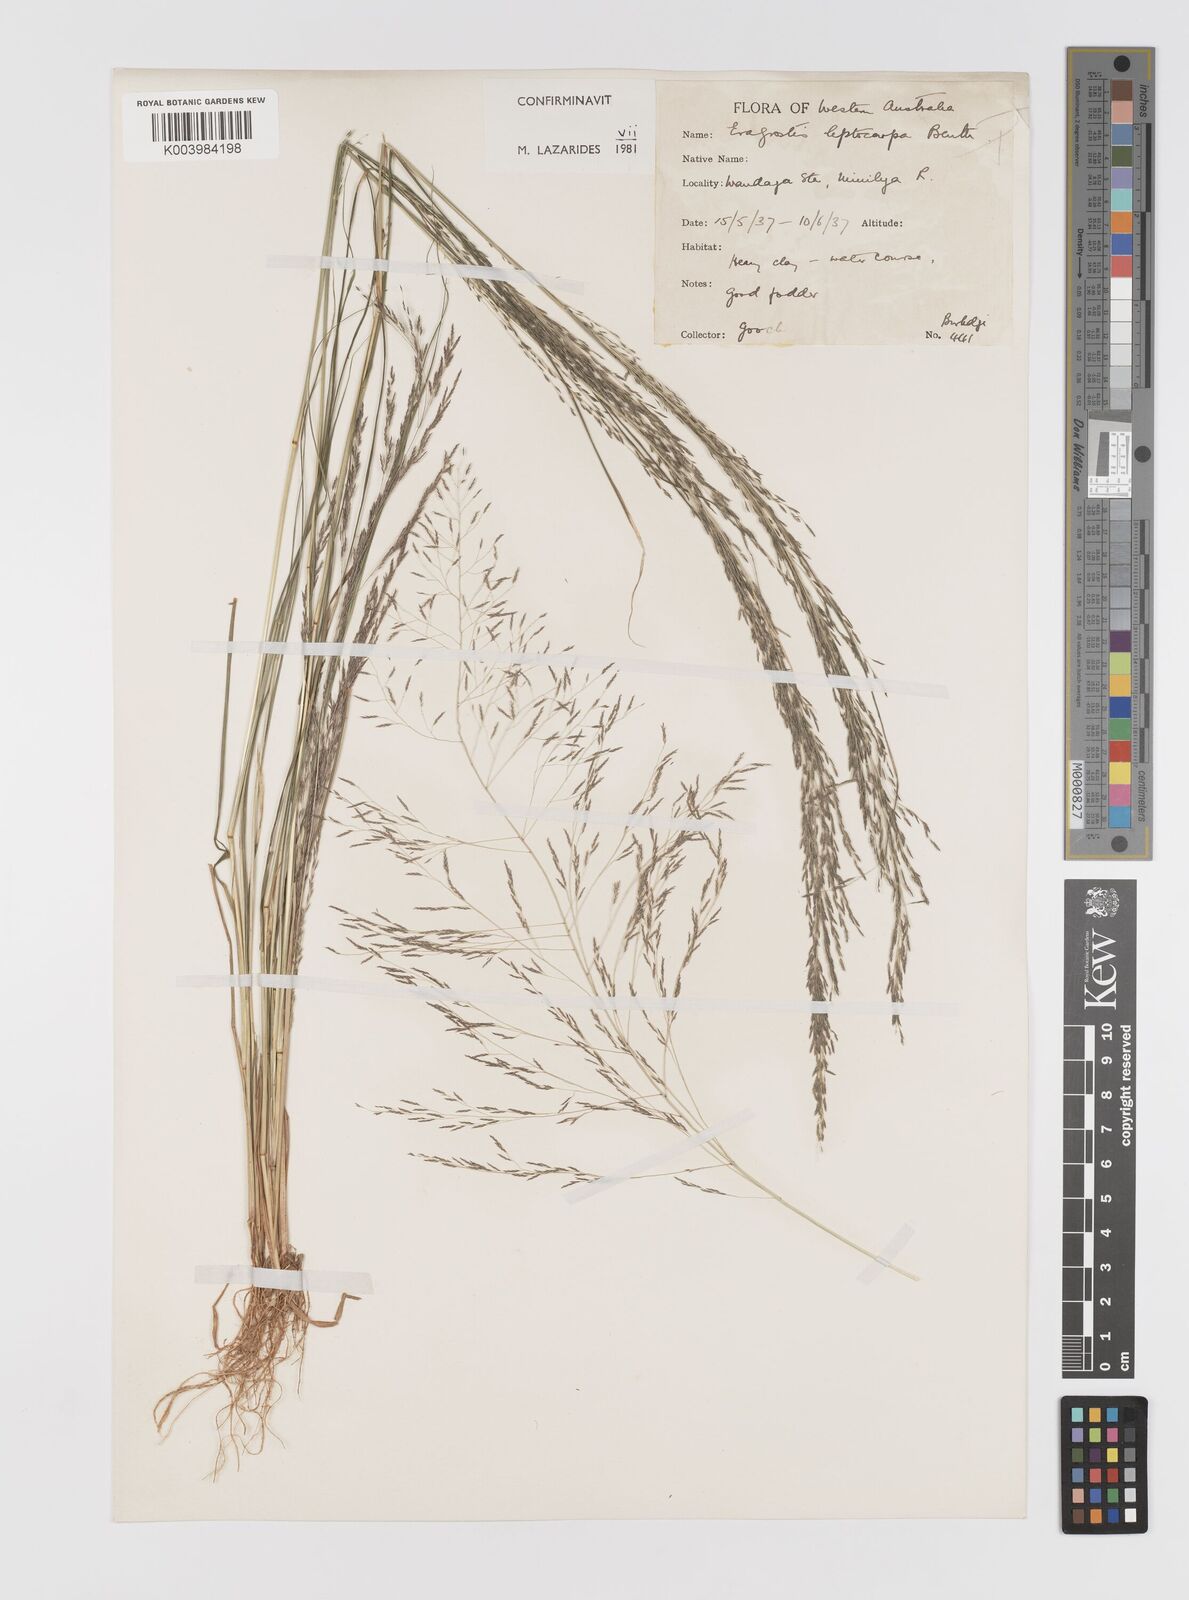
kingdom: Plantae
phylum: Tracheophyta
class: Liliopsida
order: Poales
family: Poaceae
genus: Eragrostis
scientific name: Eragrostis leptocarpa
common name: Drooping love grass
